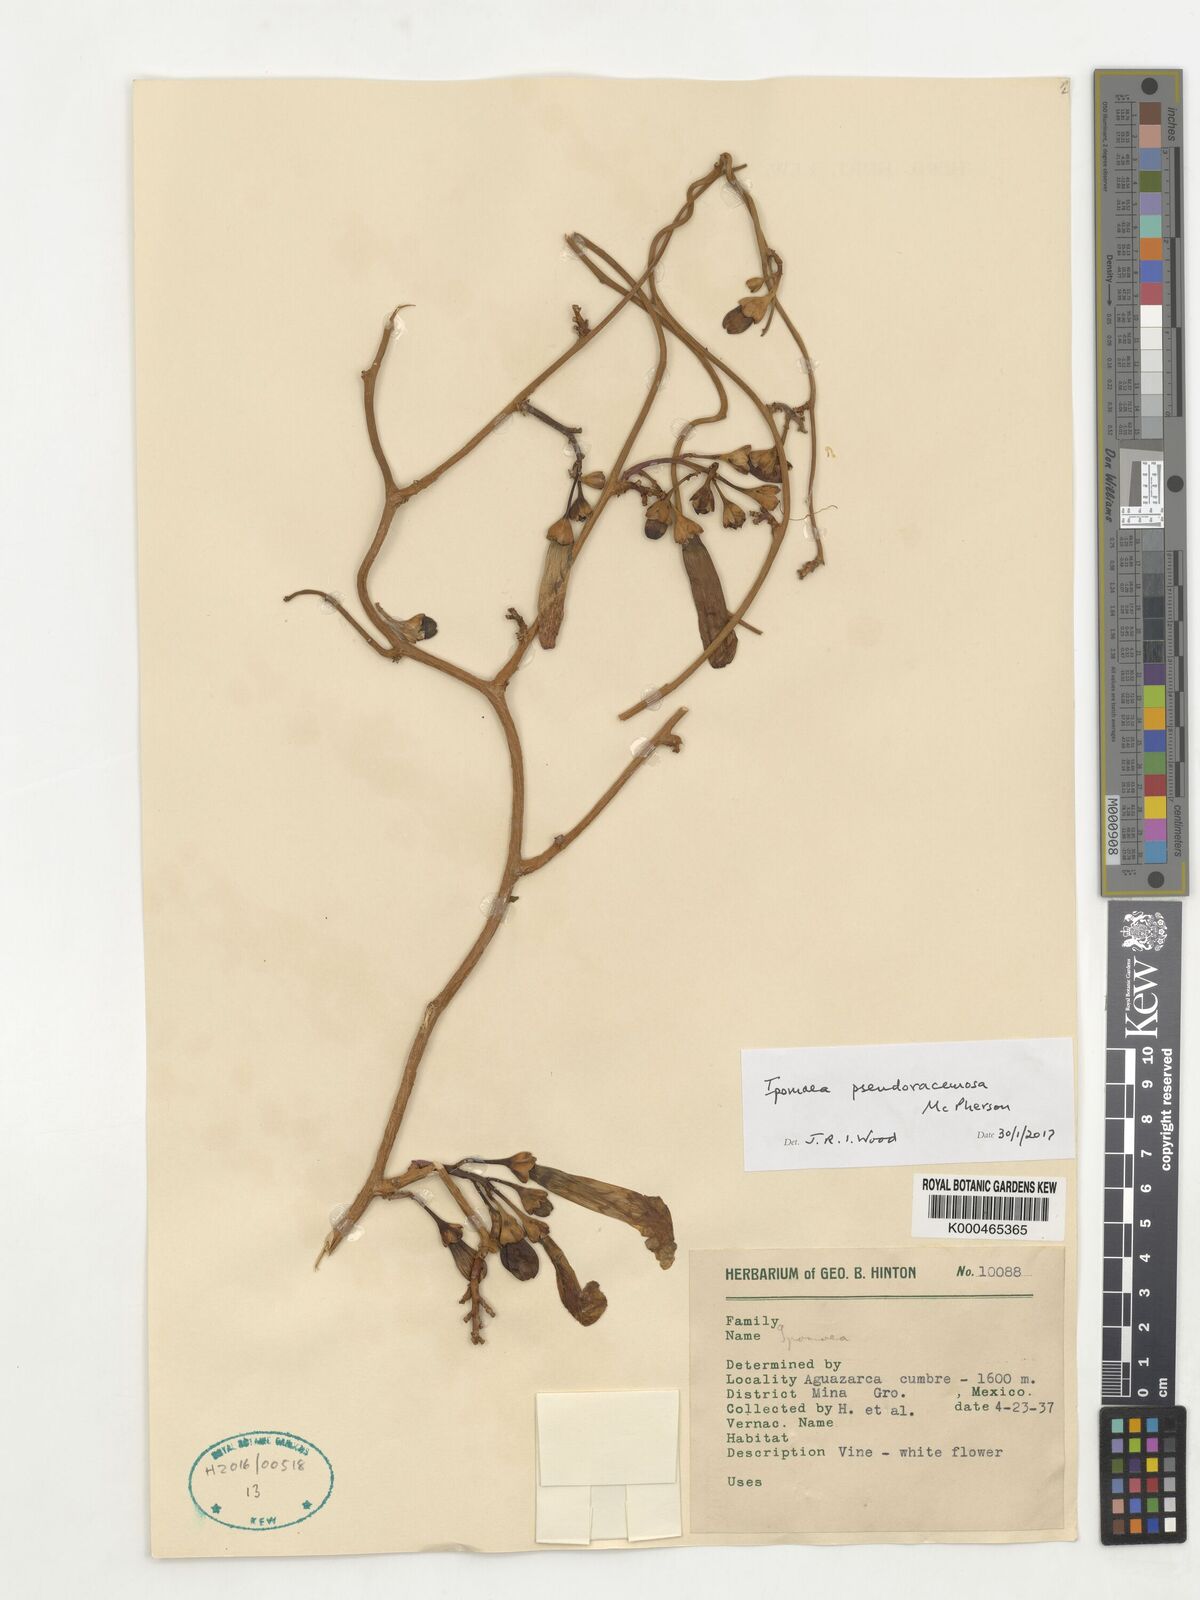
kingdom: Plantae
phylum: Tracheophyta
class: Magnoliopsida
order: Solanales
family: Convolvulaceae
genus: Ipomoea
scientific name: Ipomoea pseudoracemosa
